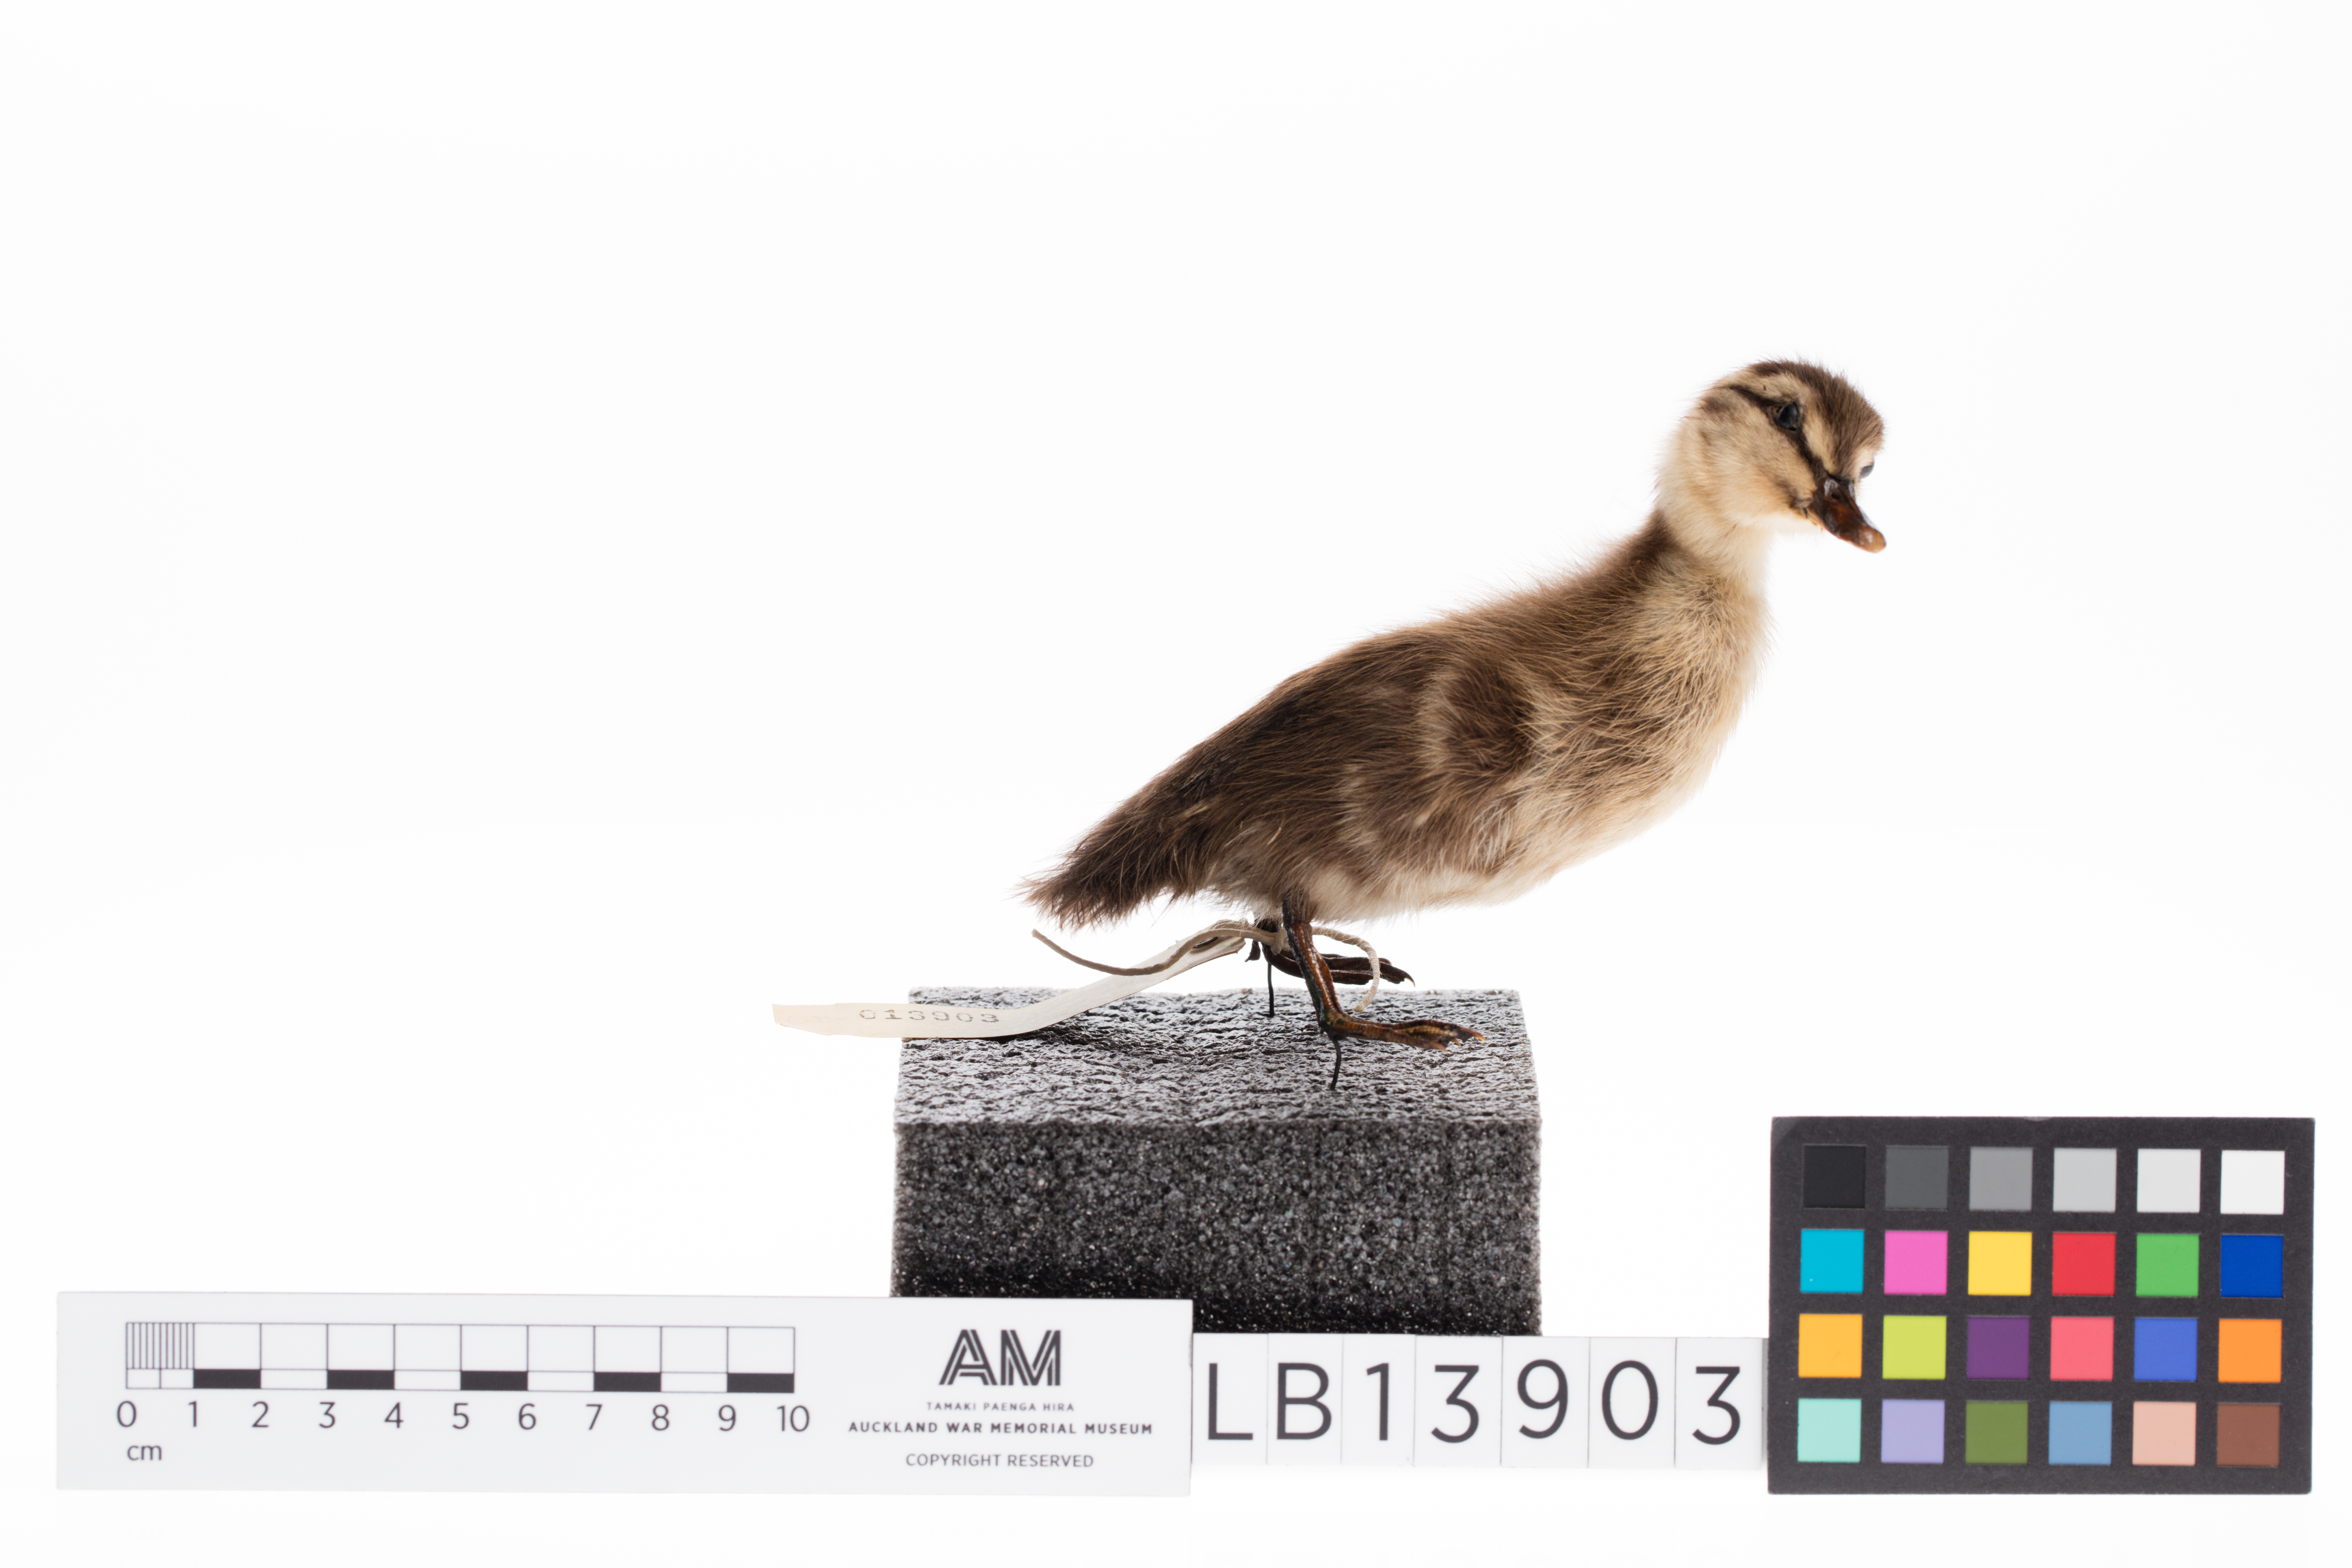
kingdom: Animalia
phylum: Chordata
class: Aves
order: Anseriformes
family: Anatidae
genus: Spatula
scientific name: Spatula rhynchotis
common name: Australian shoveler
